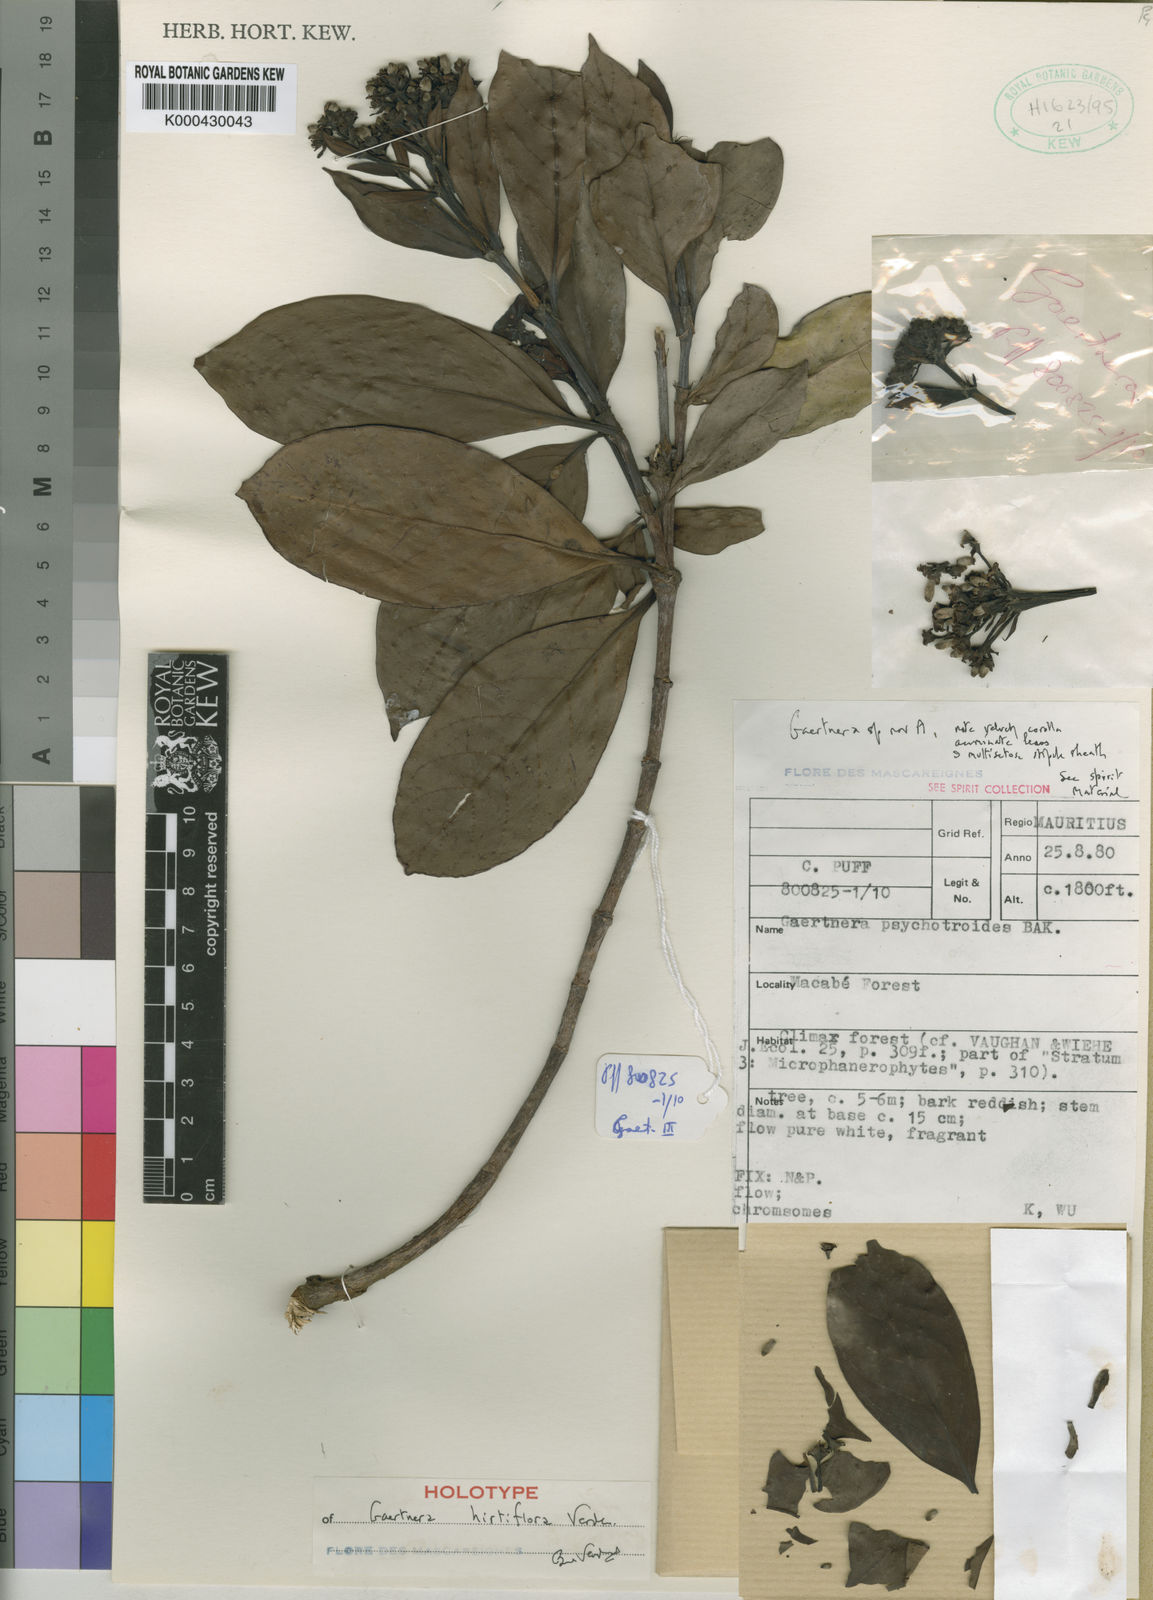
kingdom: Plantae
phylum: Tracheophyta
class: Magnoliopsida
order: Gentianales
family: Rubiaceae
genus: Gaertnera
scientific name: Gaertnera hirtiflora
